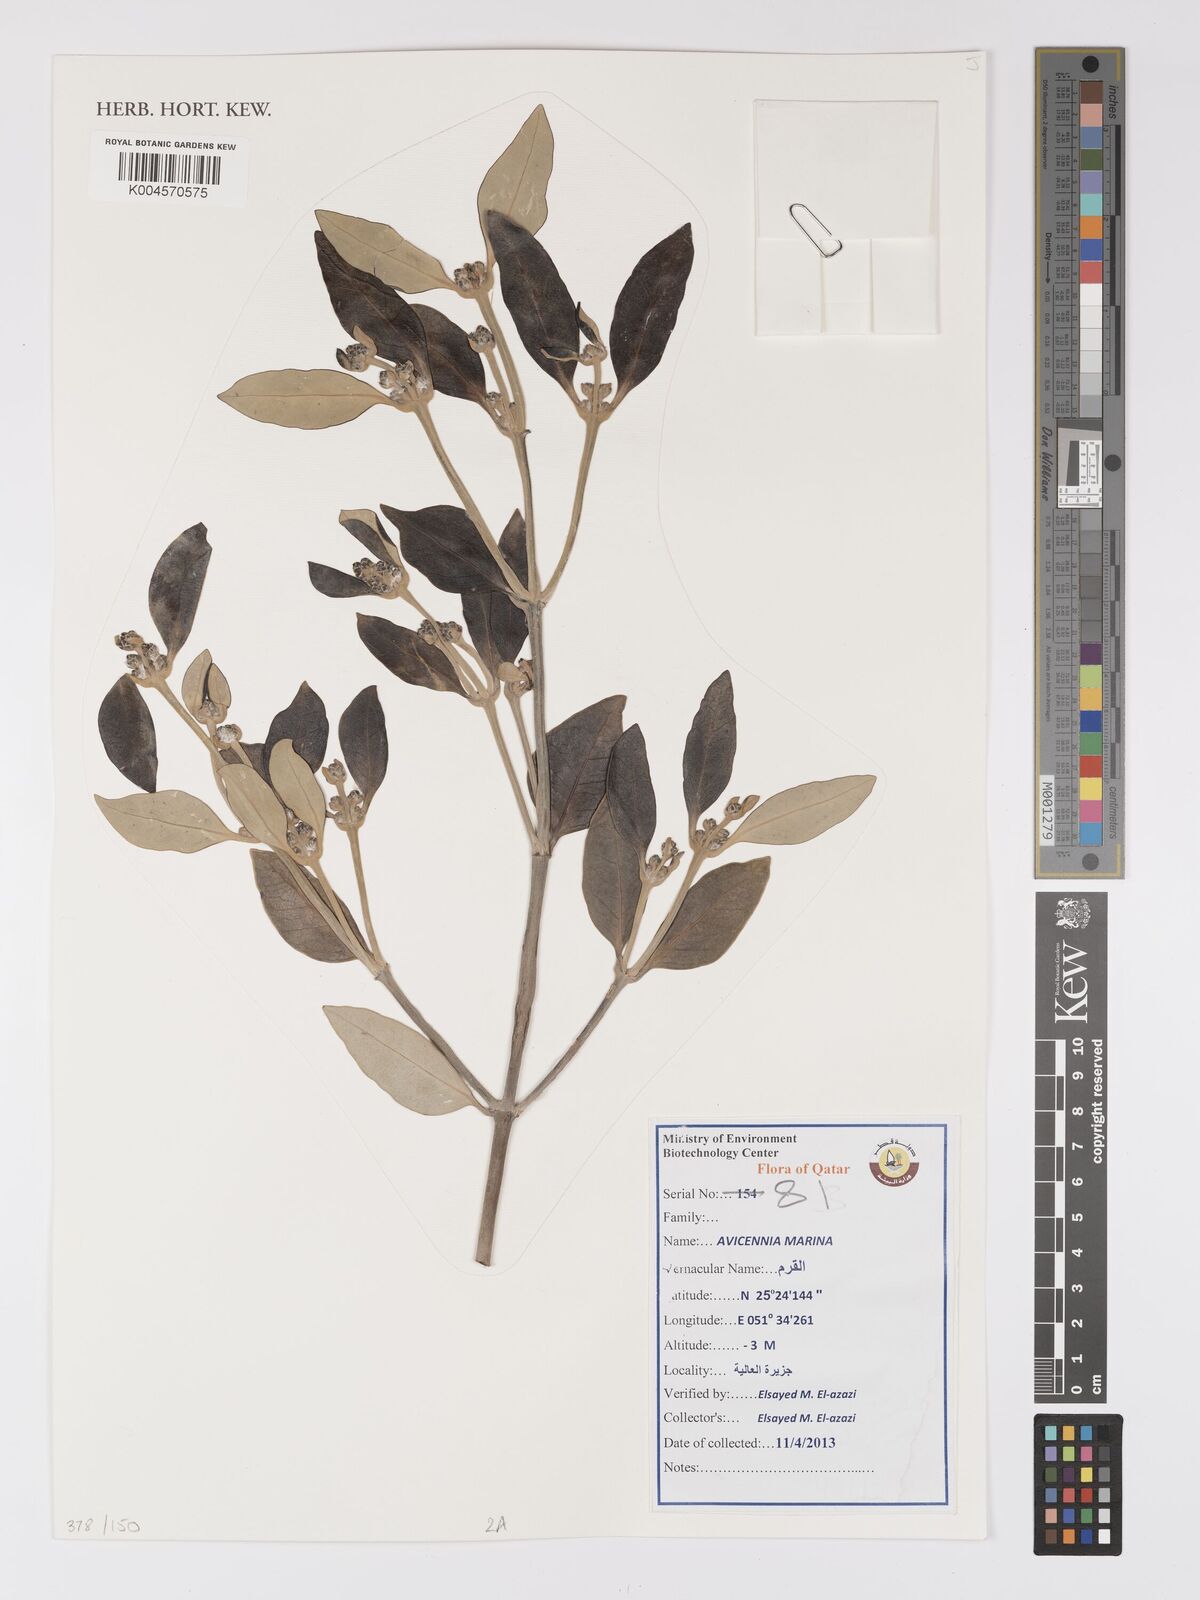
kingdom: Plantae
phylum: Tracheophyta
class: Magnoliopsida
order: Lamiales
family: Acanthaceae
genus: Avicennia
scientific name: Avicennia marina
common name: Gray mangrove
